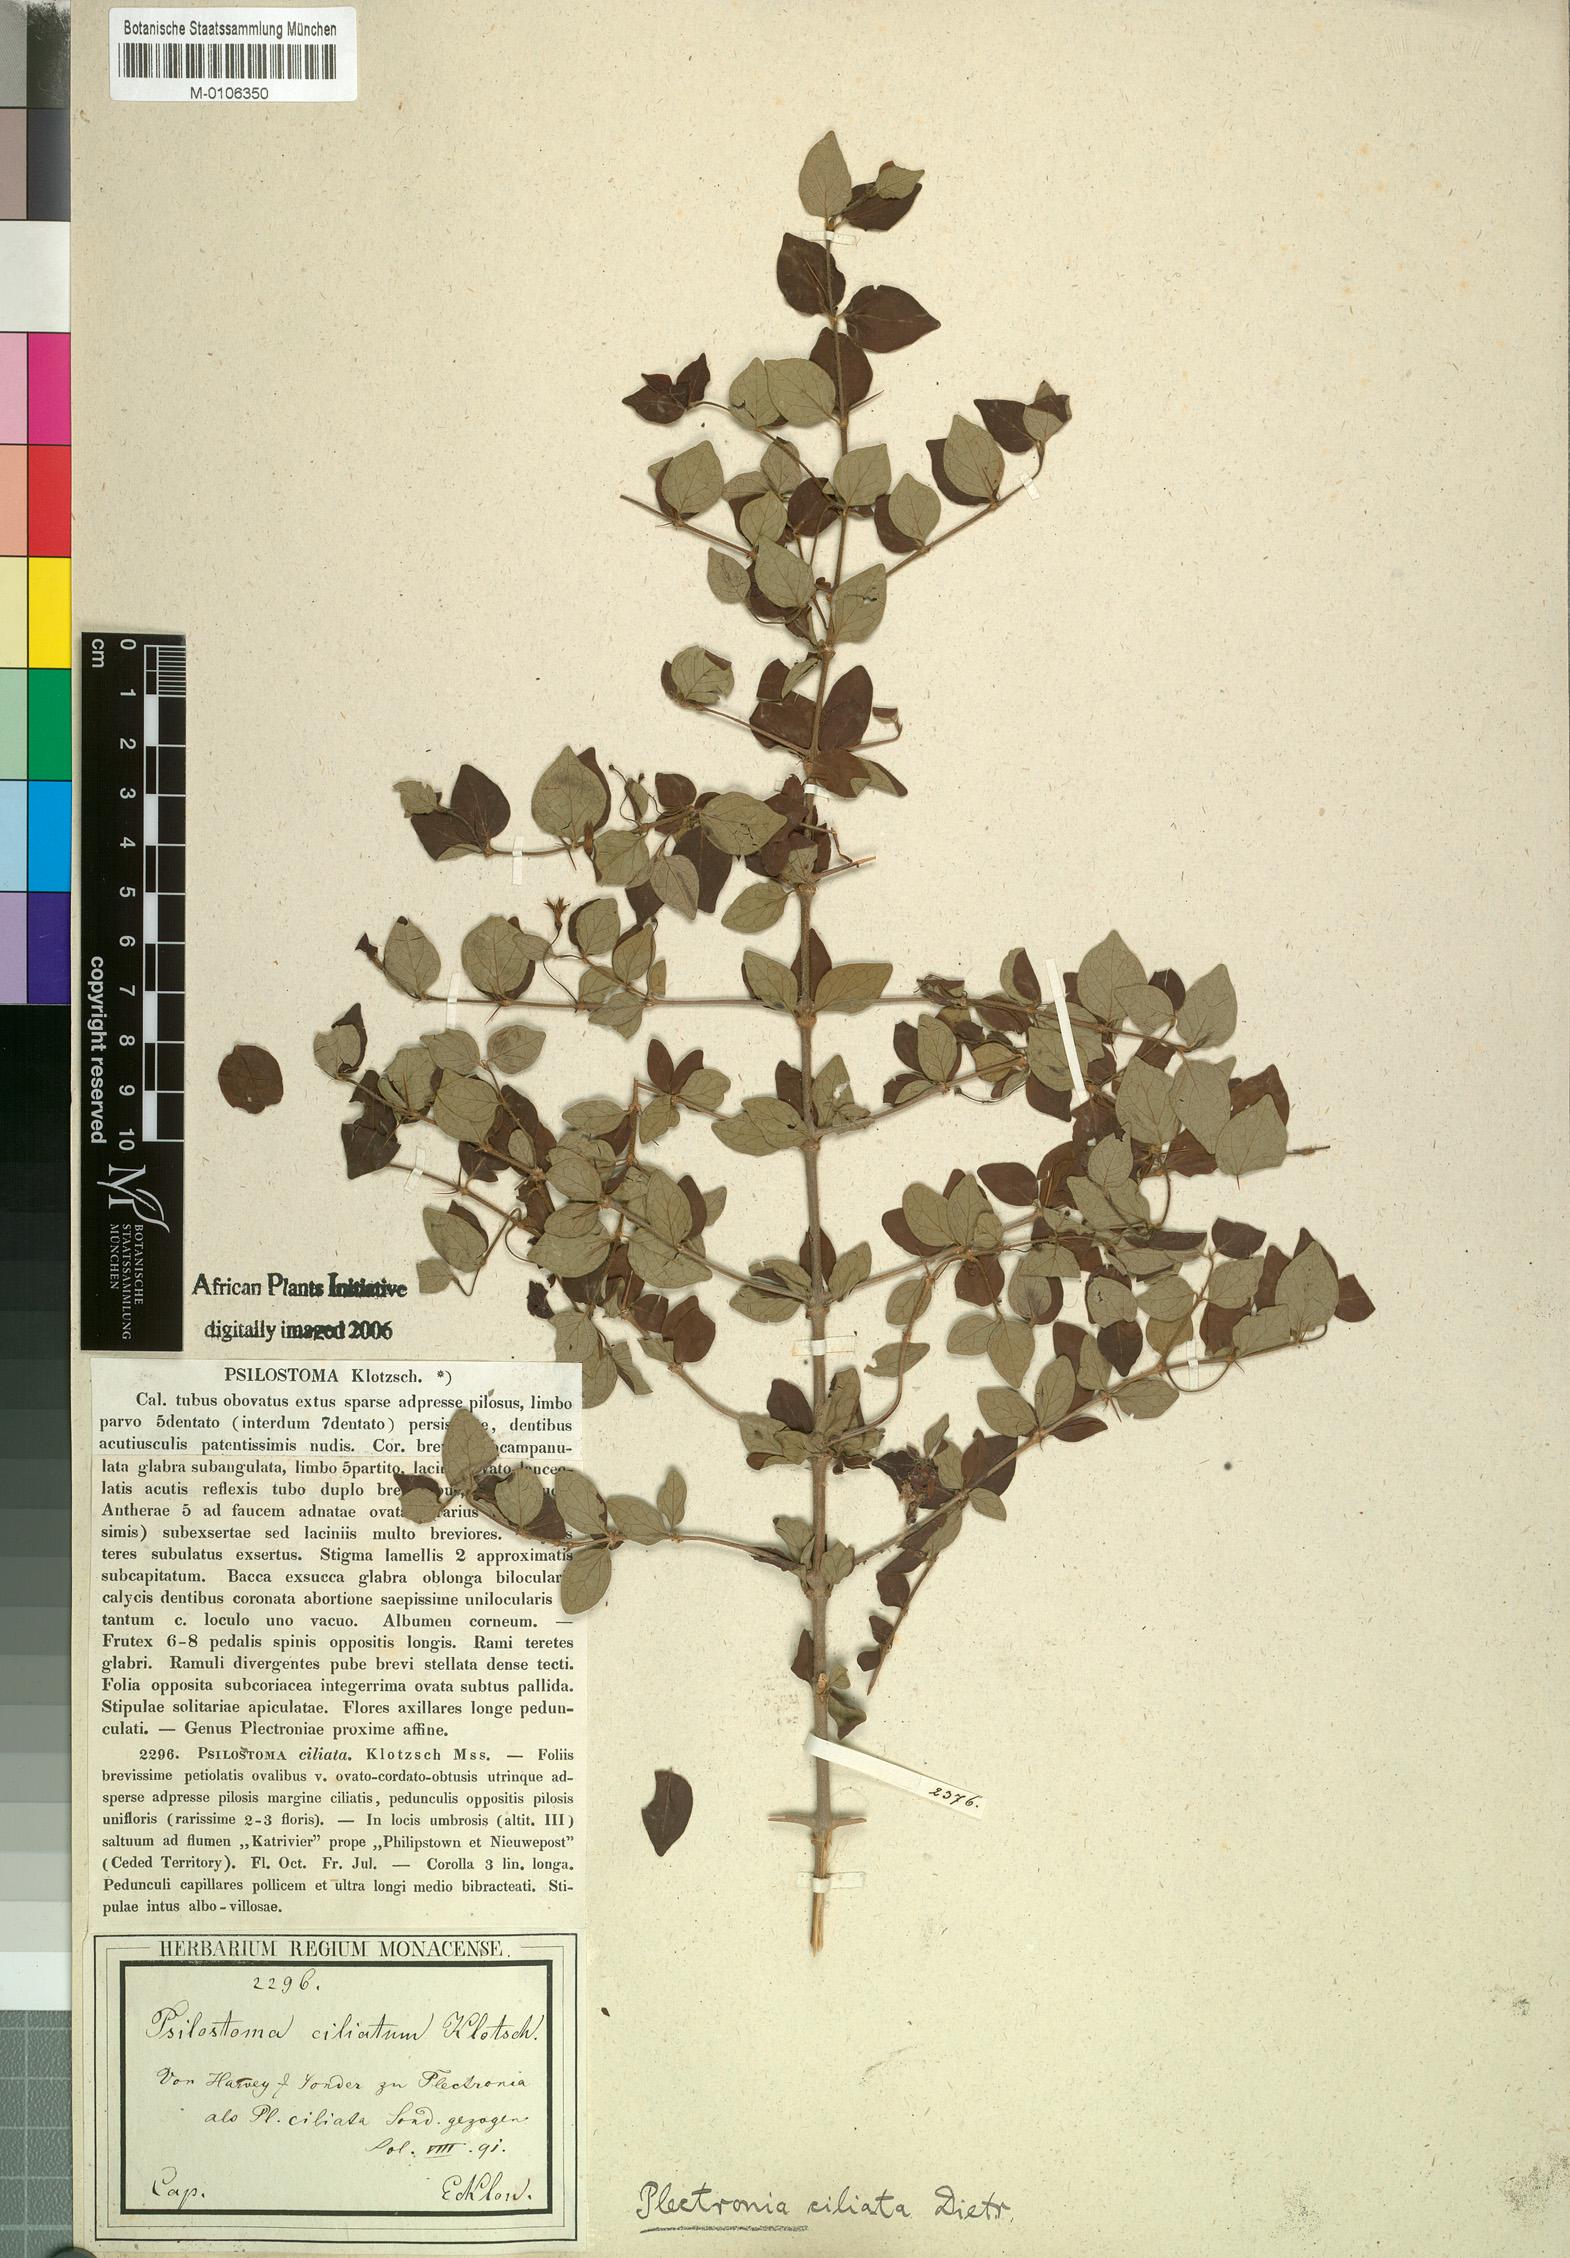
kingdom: Plantae
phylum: Tracheophyta
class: Magnoliopsida
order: Gentianales
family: Rubiaceae
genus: Canthium
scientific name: Canthium ciliatum
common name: Hairy turkey-berry
